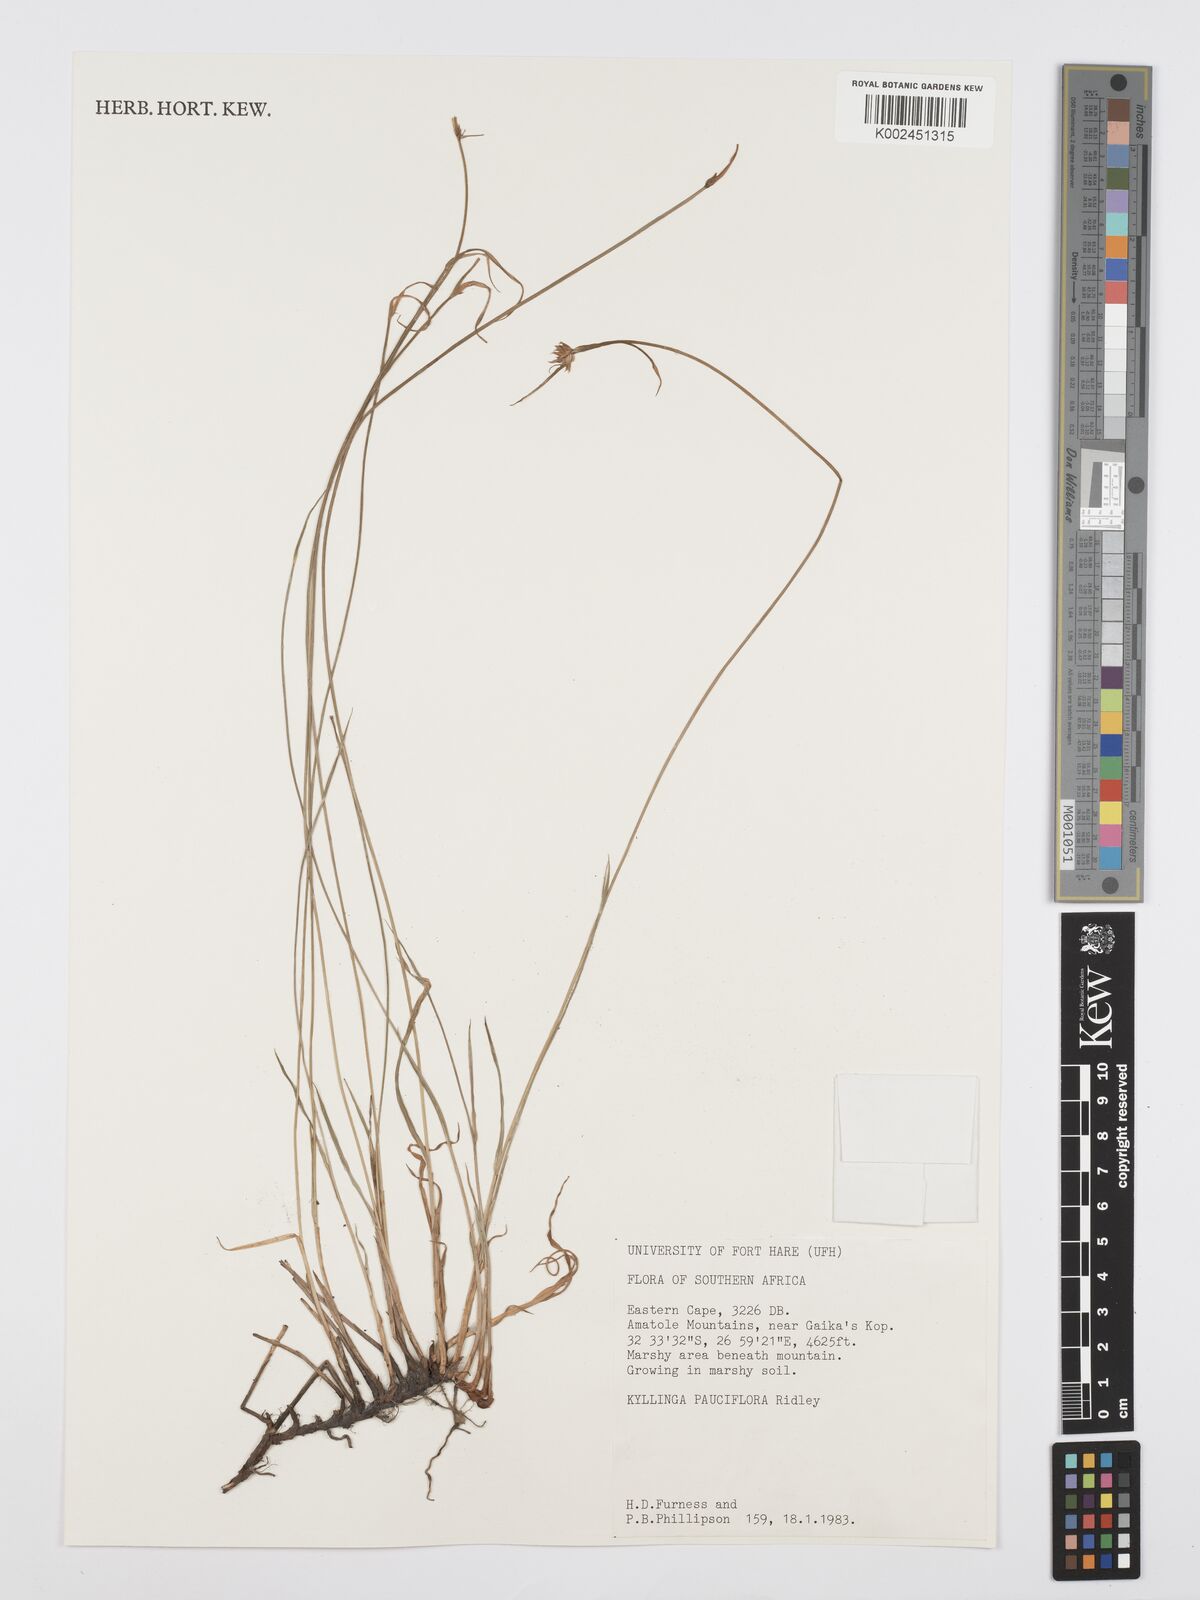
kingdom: Plantae
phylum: Tracheophyta
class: Liliopsida
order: Poales
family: Cyperaceae
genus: Cyperus
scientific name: Cyperus
